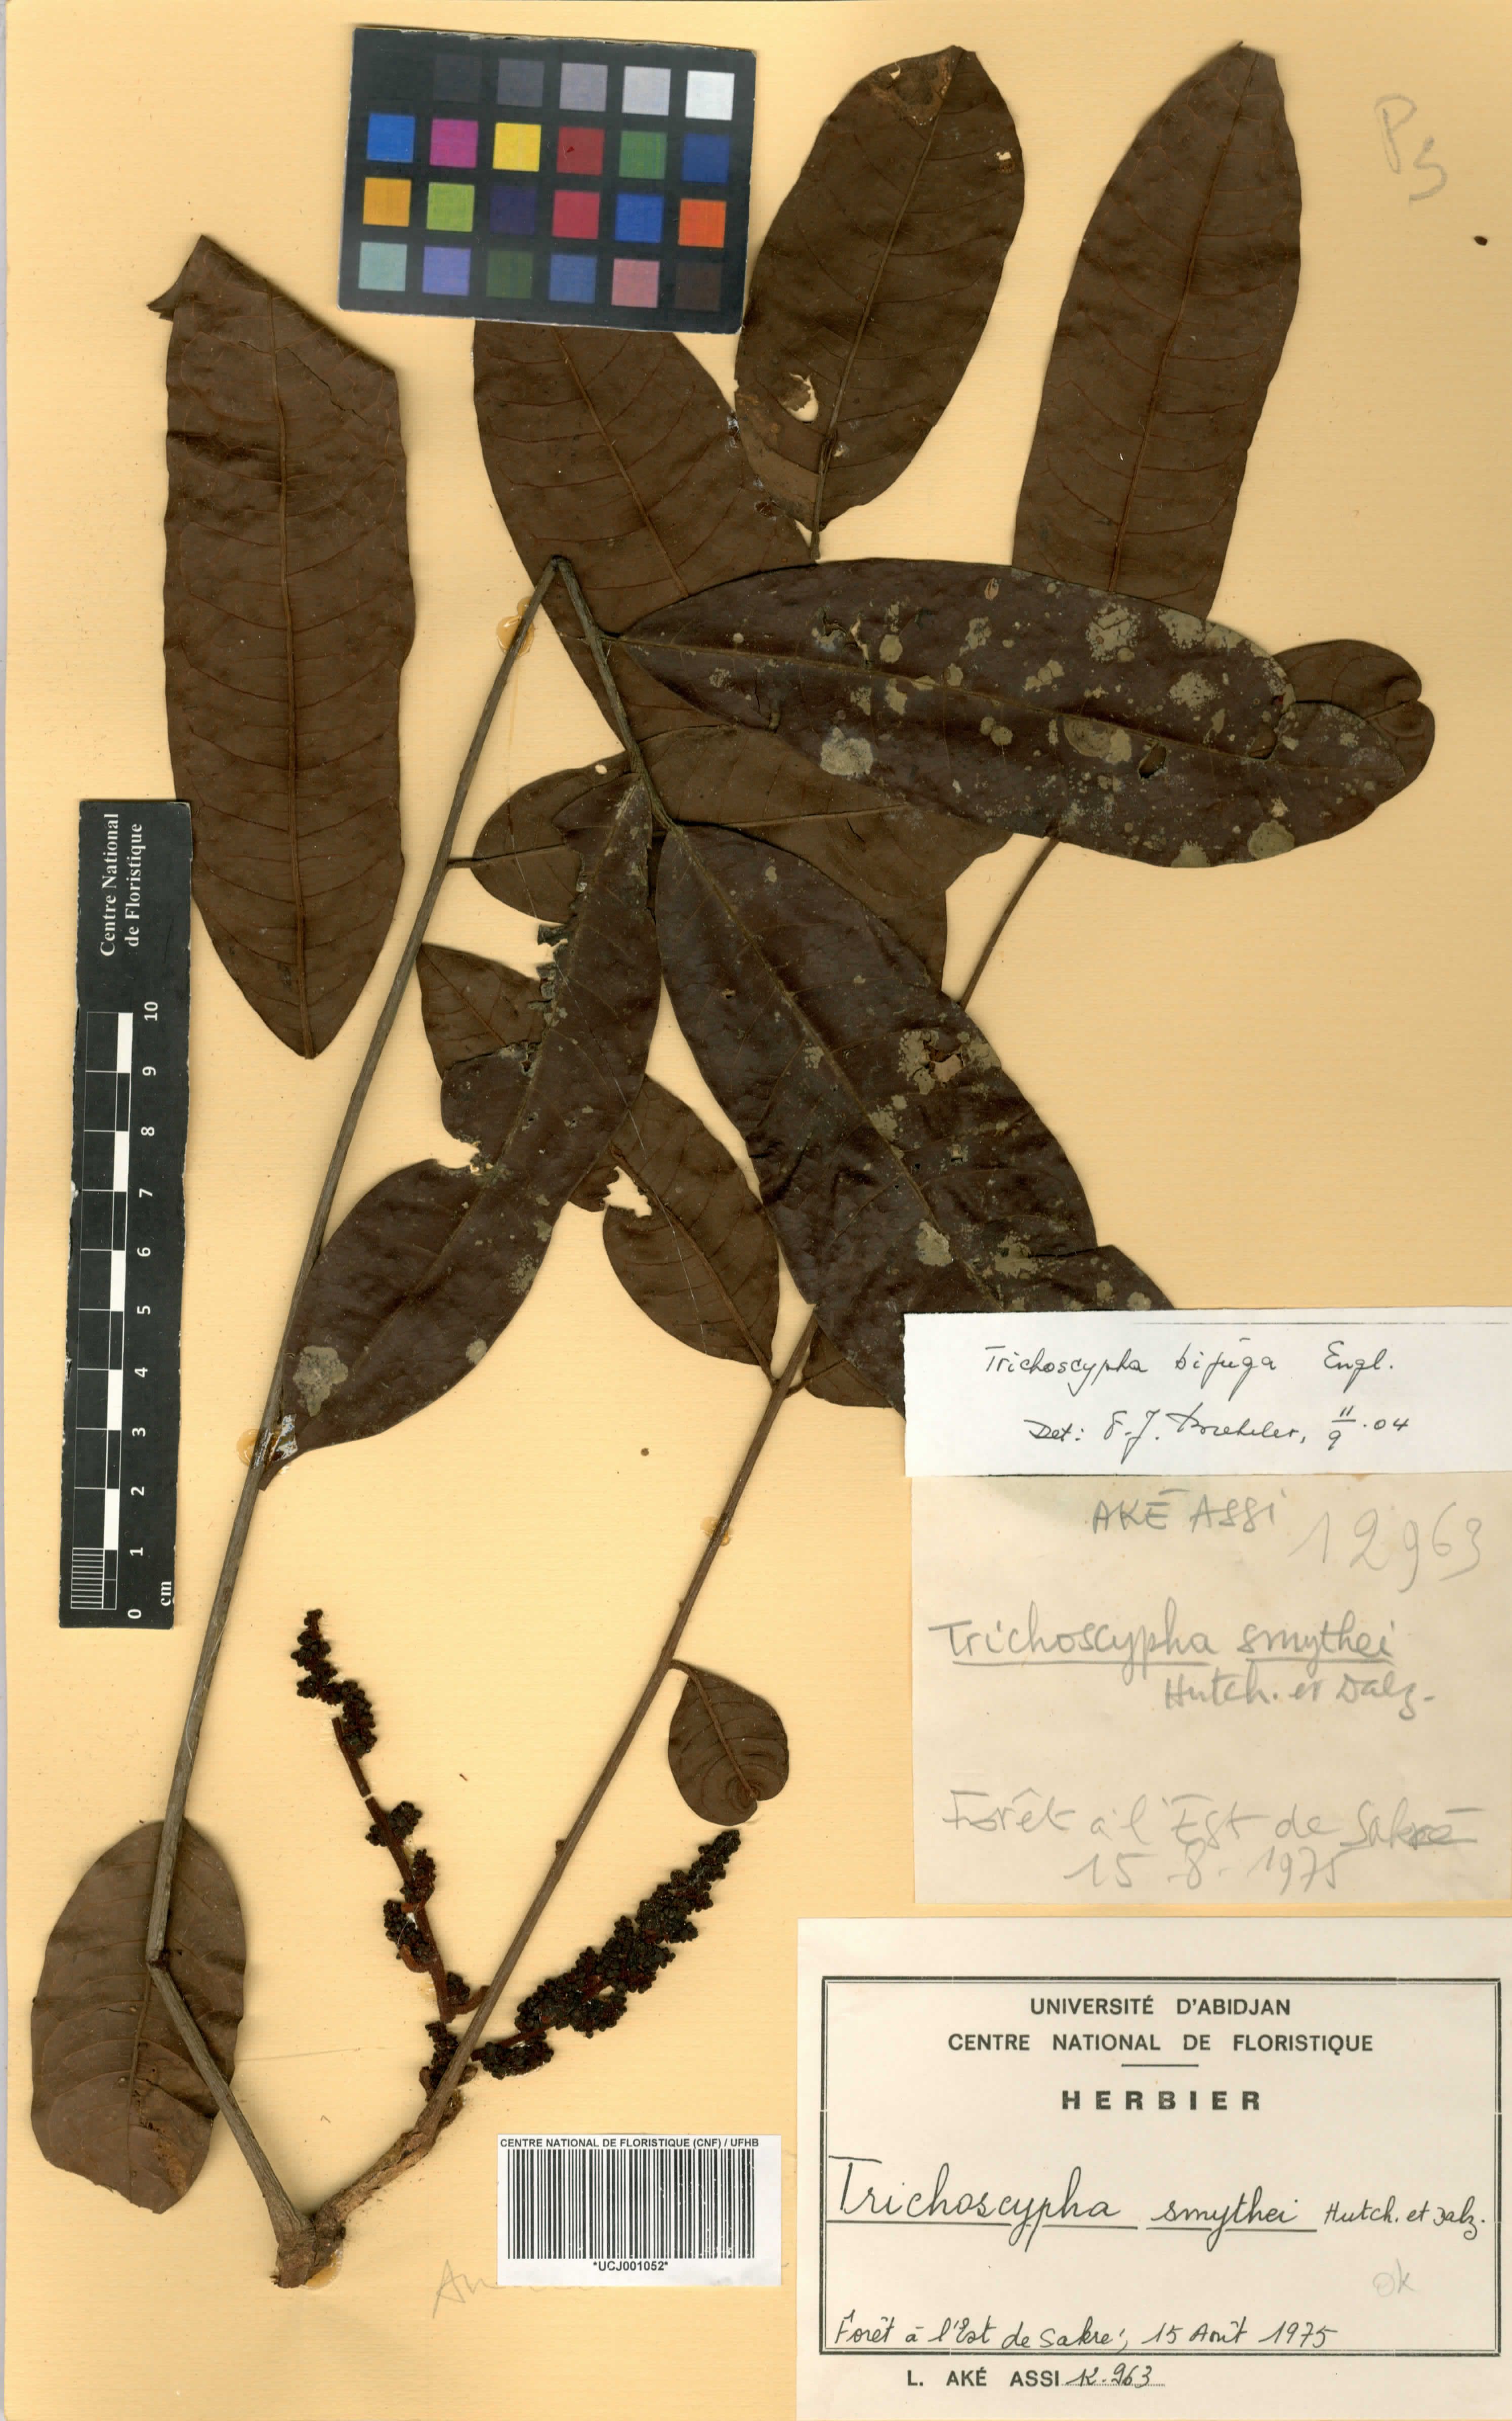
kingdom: Plantae
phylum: Tracheophyta
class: Magnoliopsida
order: Sapindales
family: Anacardiaceae
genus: Trichoscypha
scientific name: Trichoscypha smythei
